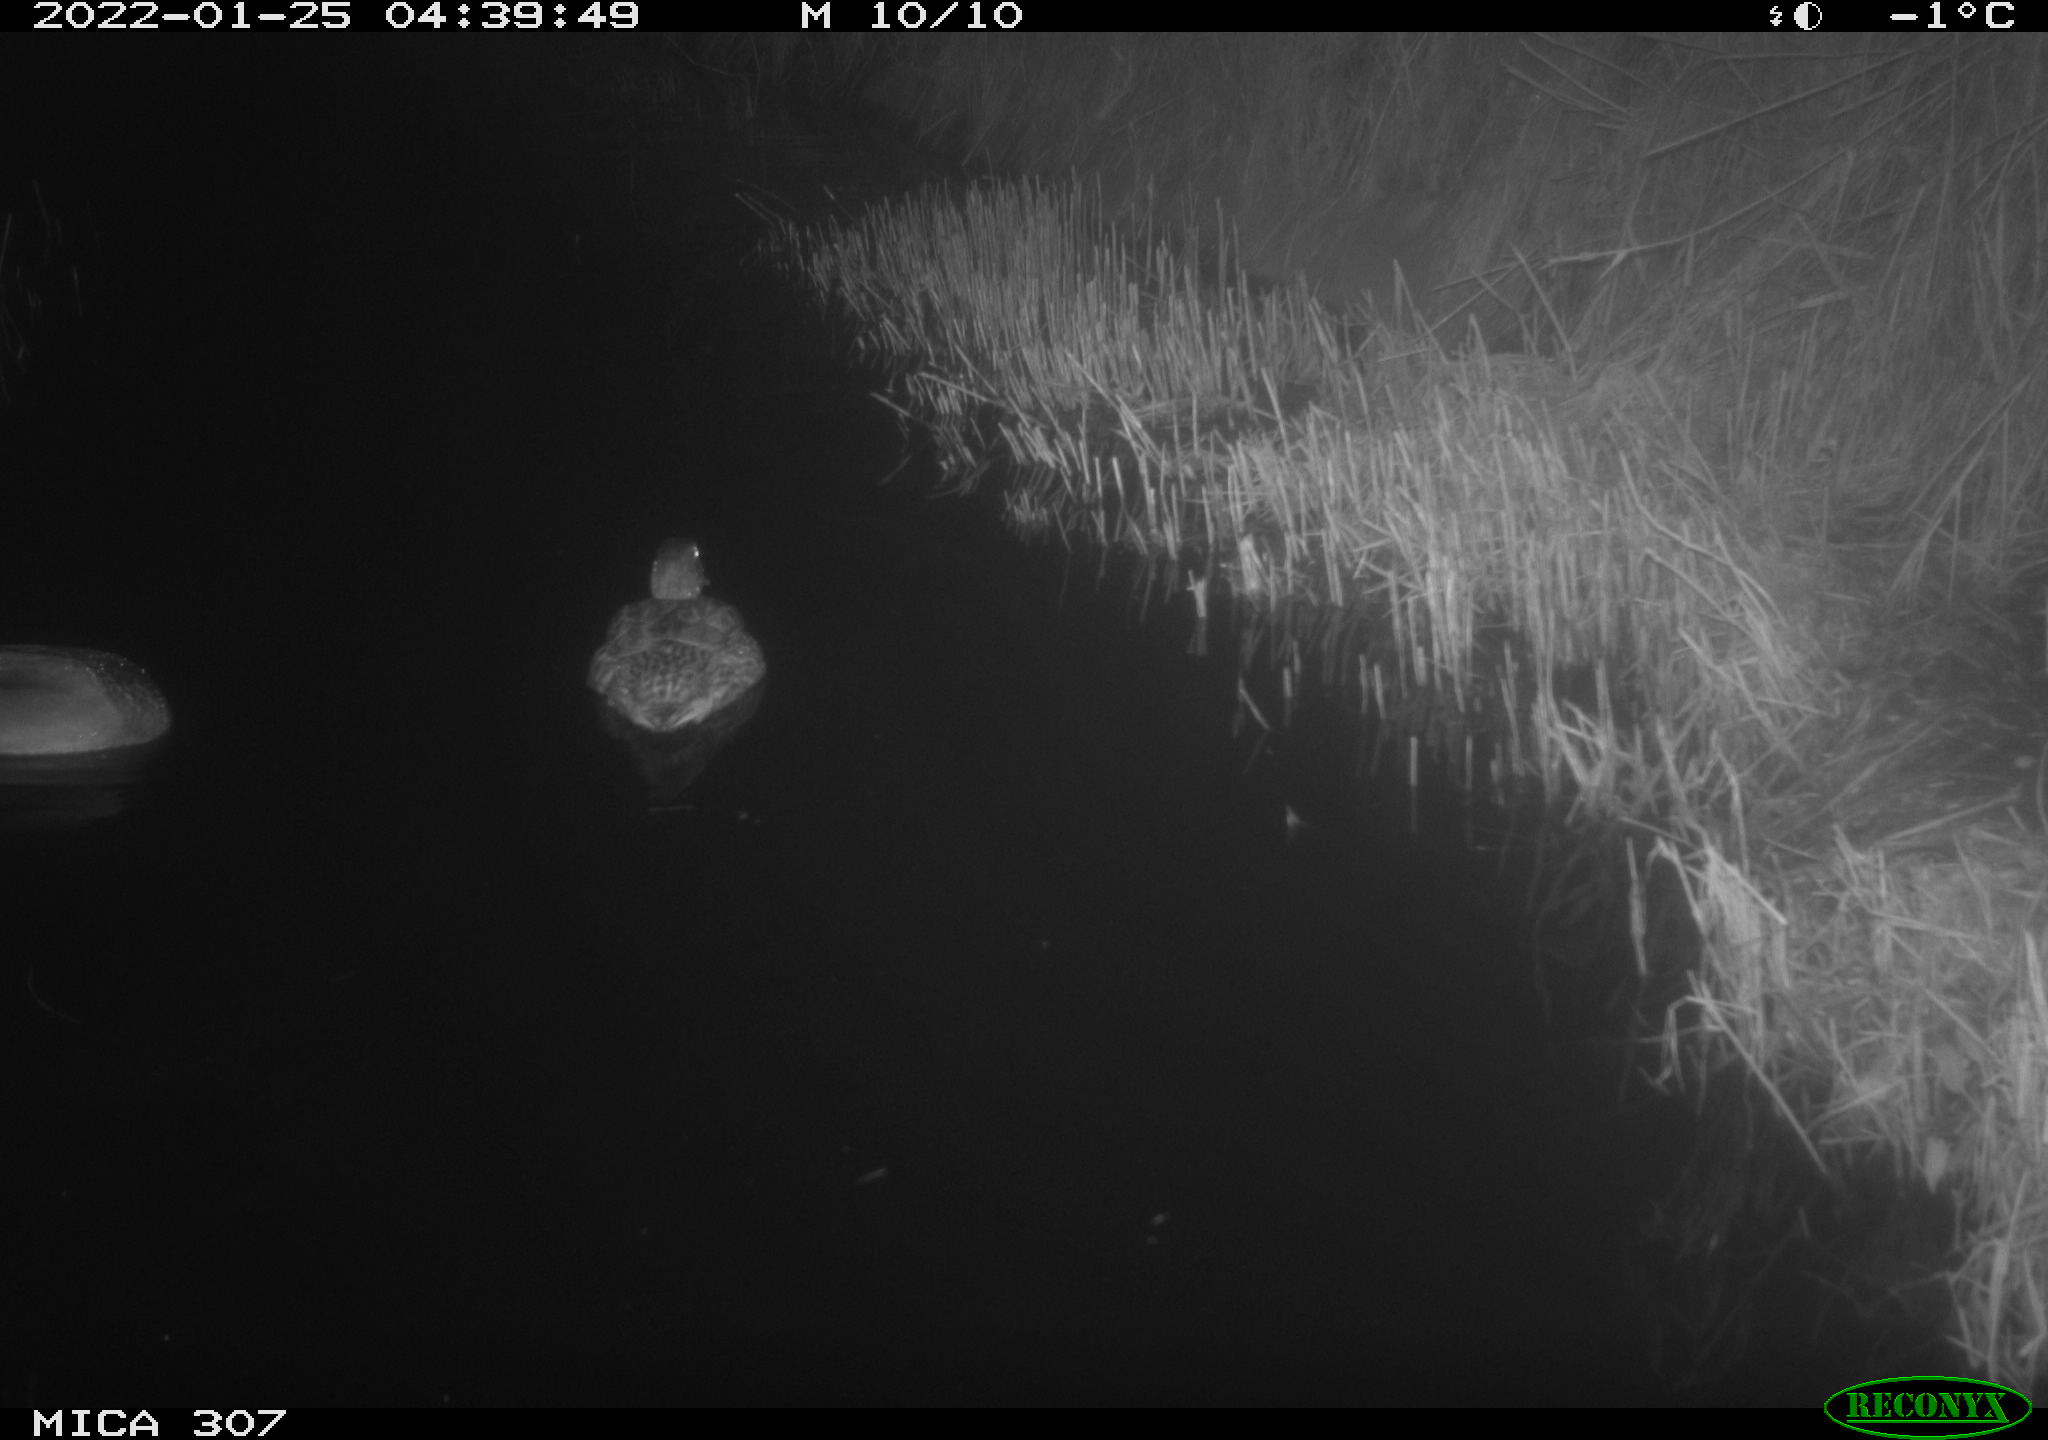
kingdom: Animalia
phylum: Chordata
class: Aves
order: Anseriformes
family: Anatidae
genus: Anas
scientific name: Anas
